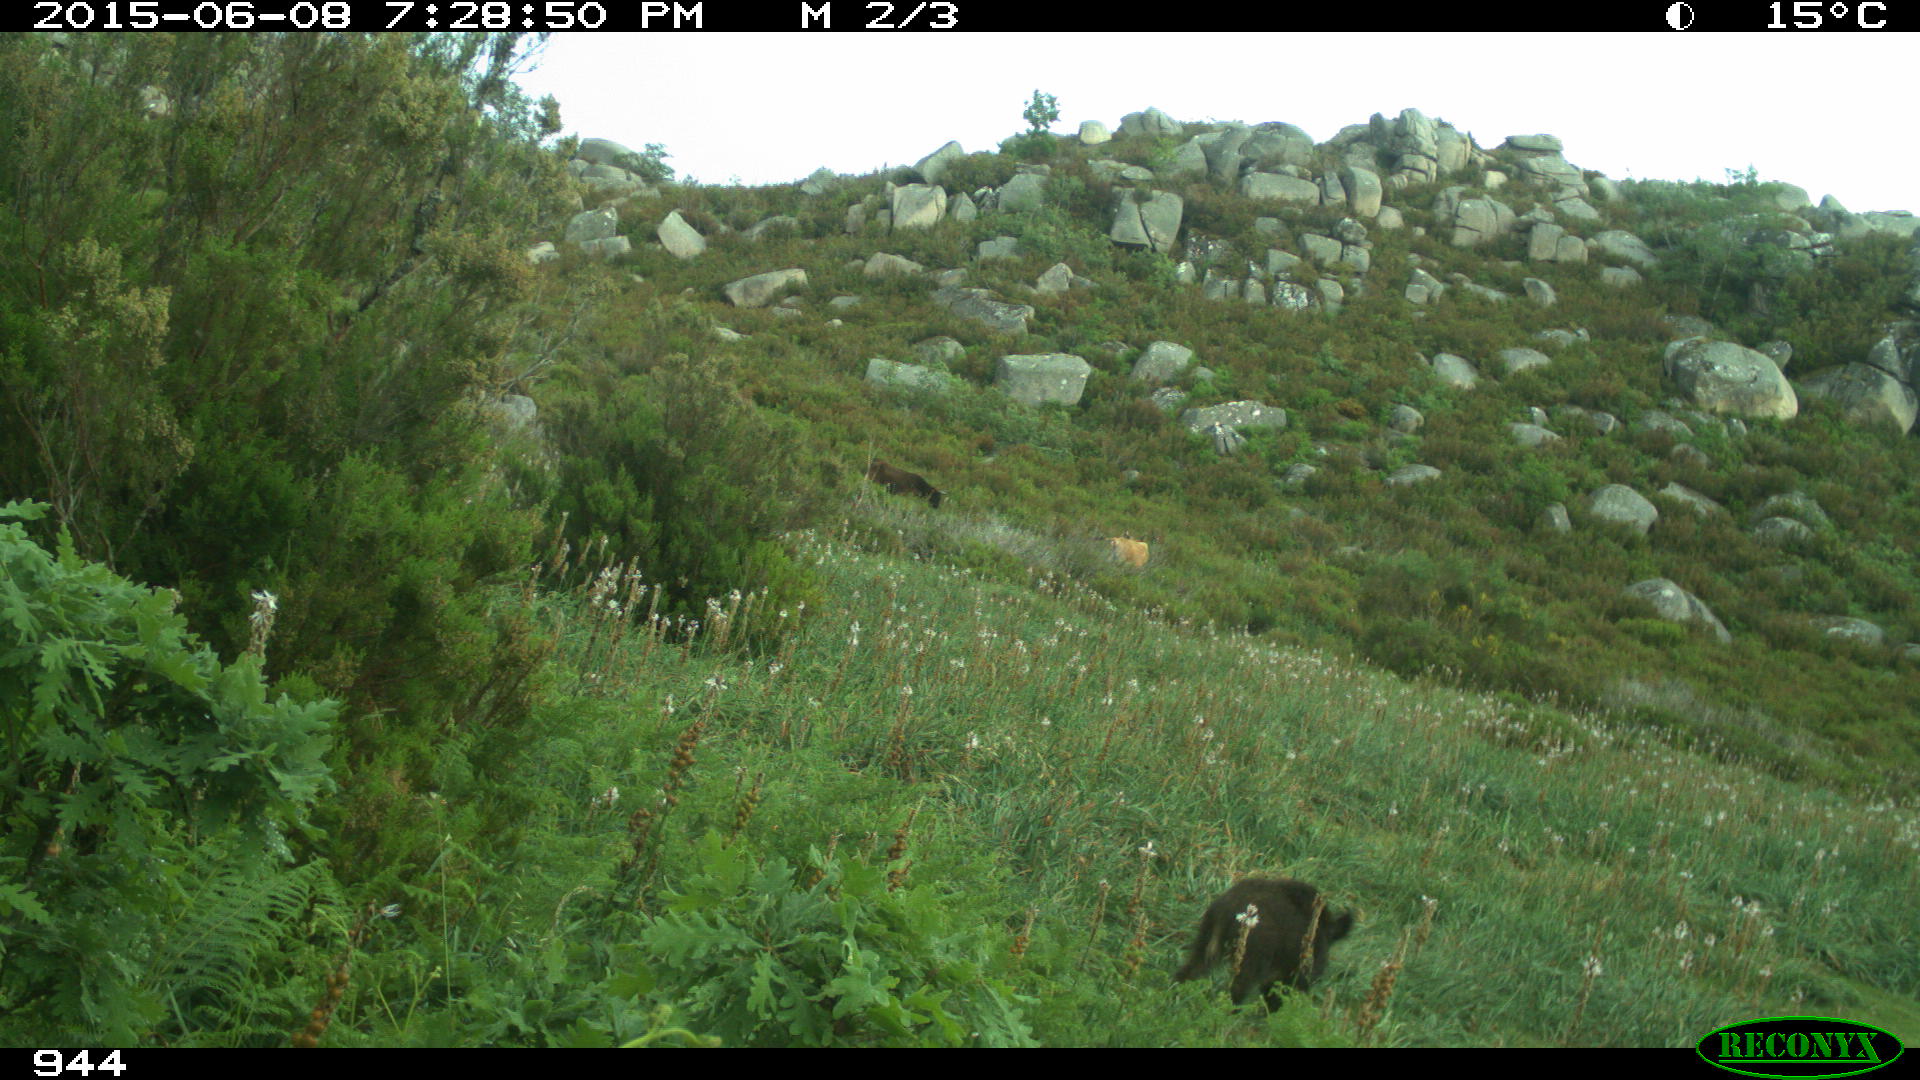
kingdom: Animalia
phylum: Chordata
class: Mammalia
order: Artiodactyla
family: Suidae
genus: Sus
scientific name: Sus scrofa
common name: Wild boar
